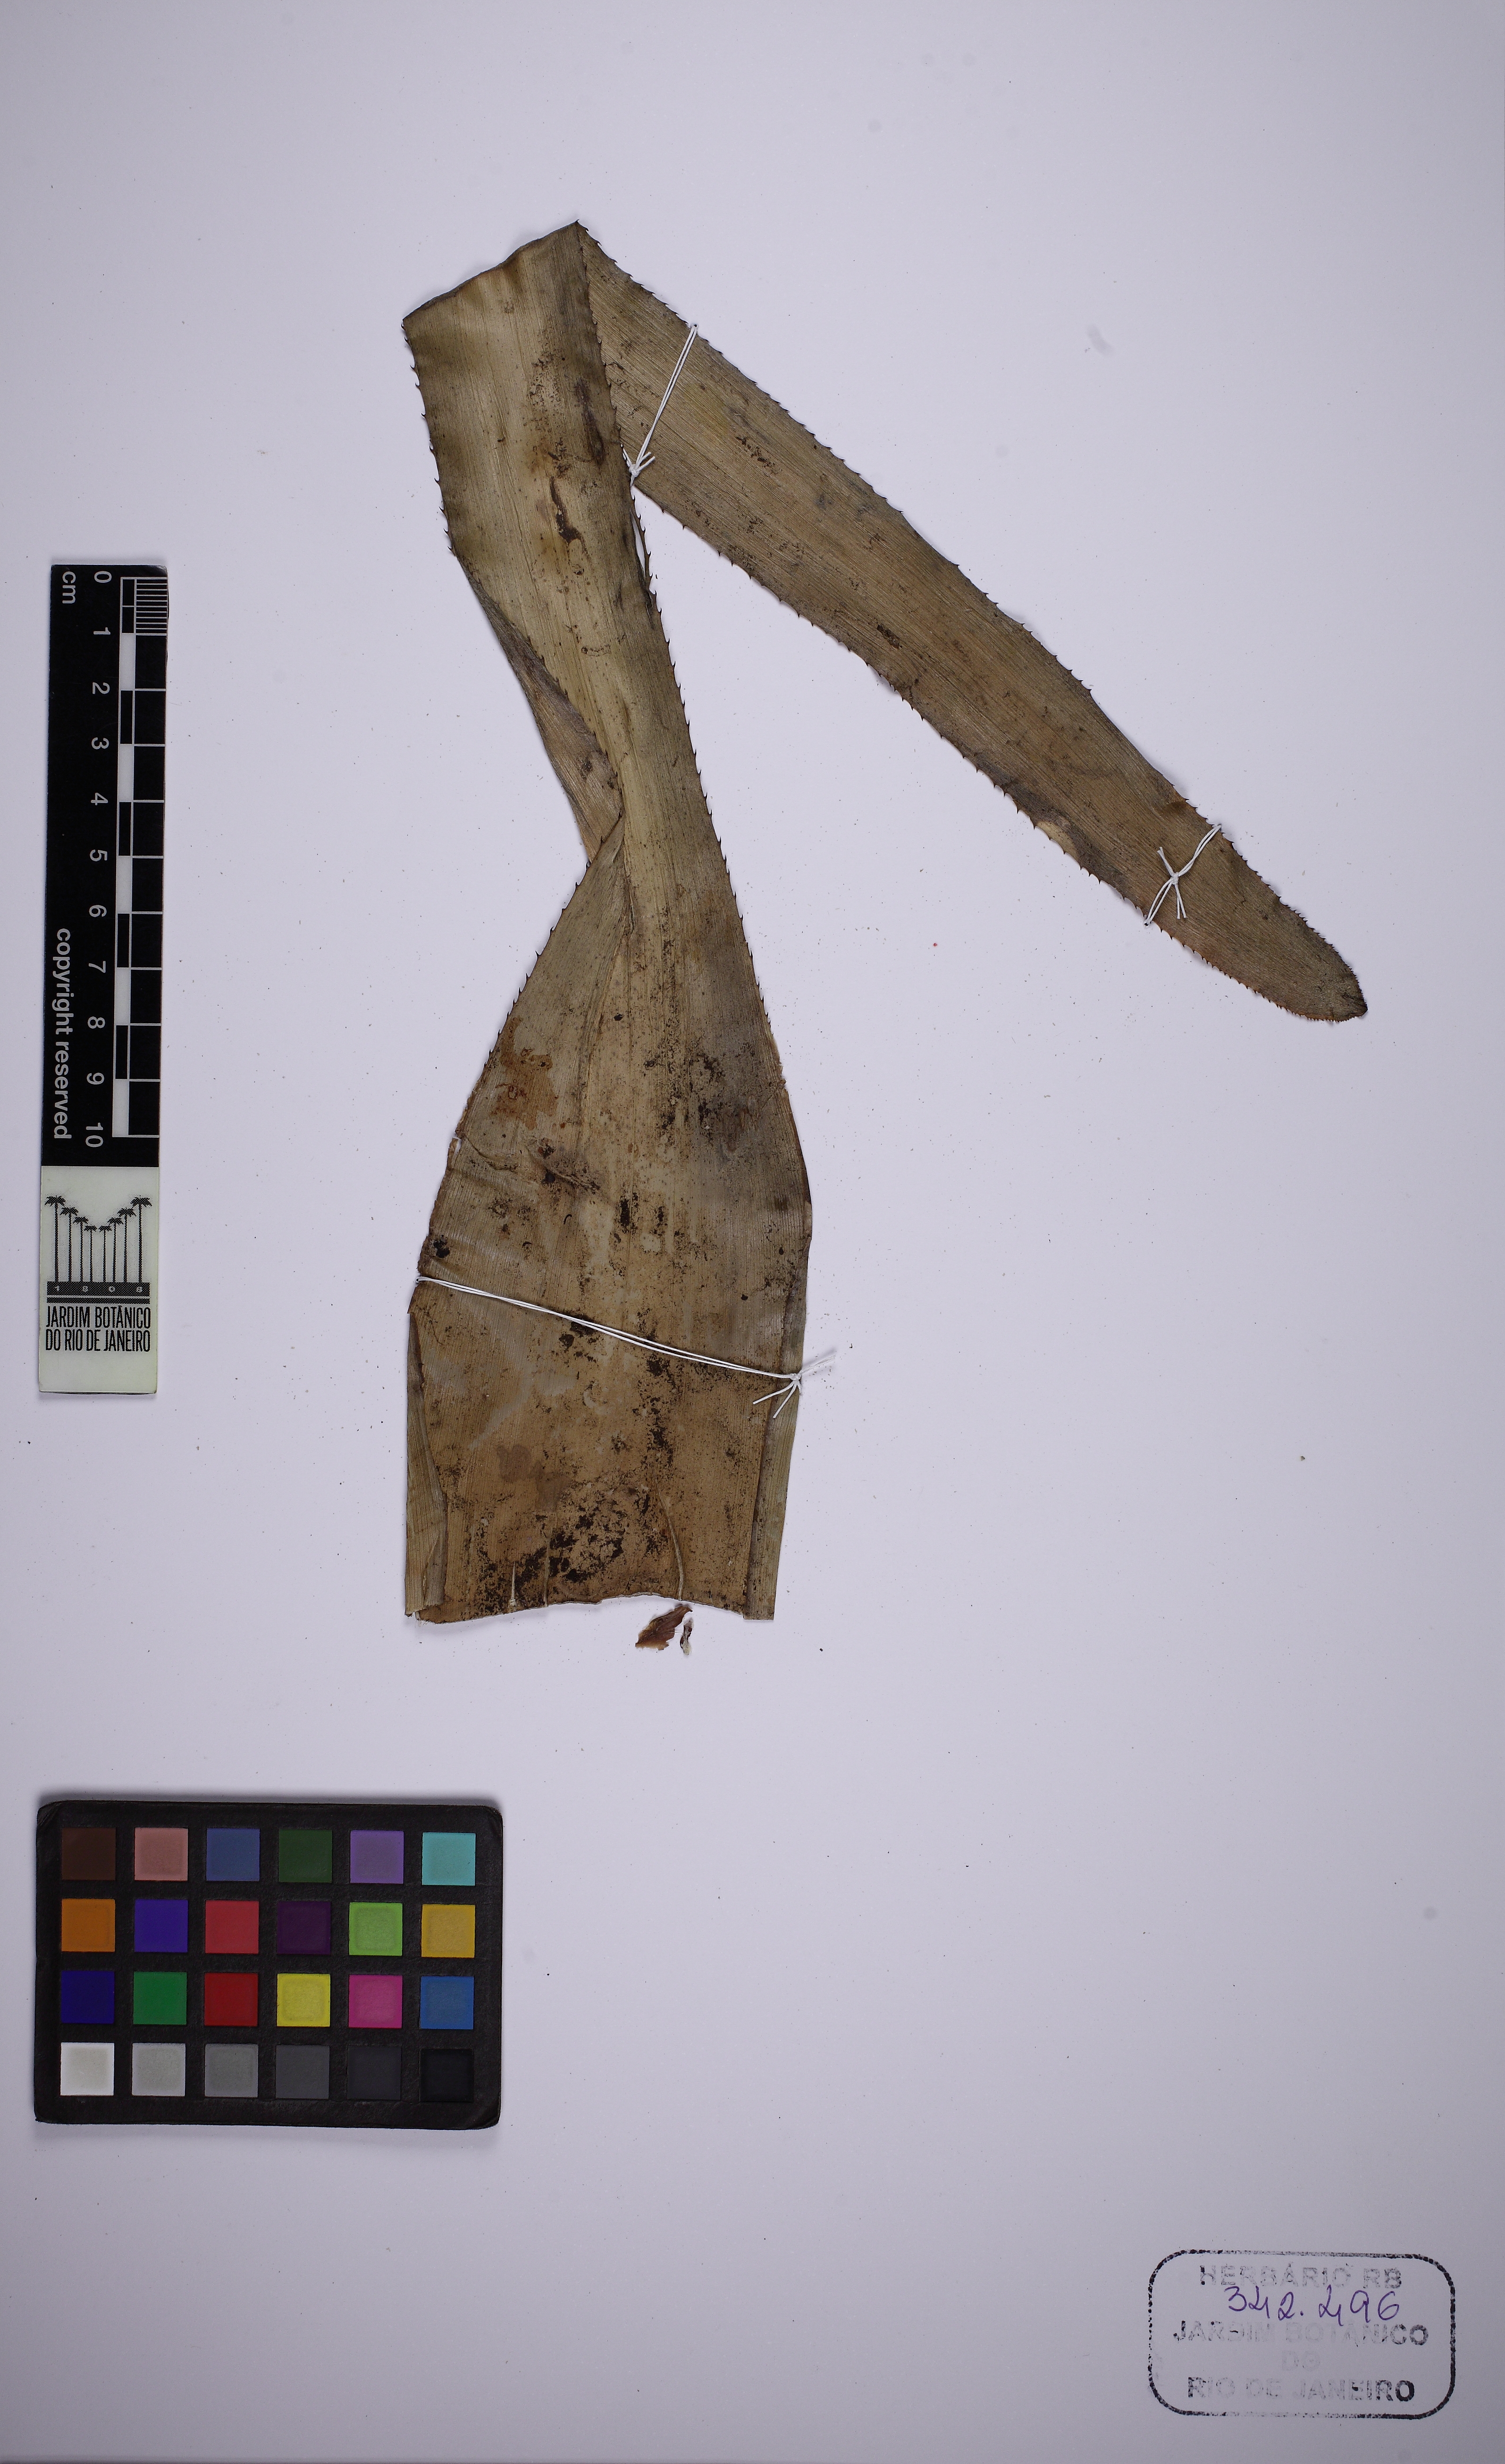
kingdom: Plantae
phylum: Tracheophyta
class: Liliopsida
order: Poales
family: Bromeliaceae
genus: Aechmea
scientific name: Aechmea lamarchei
